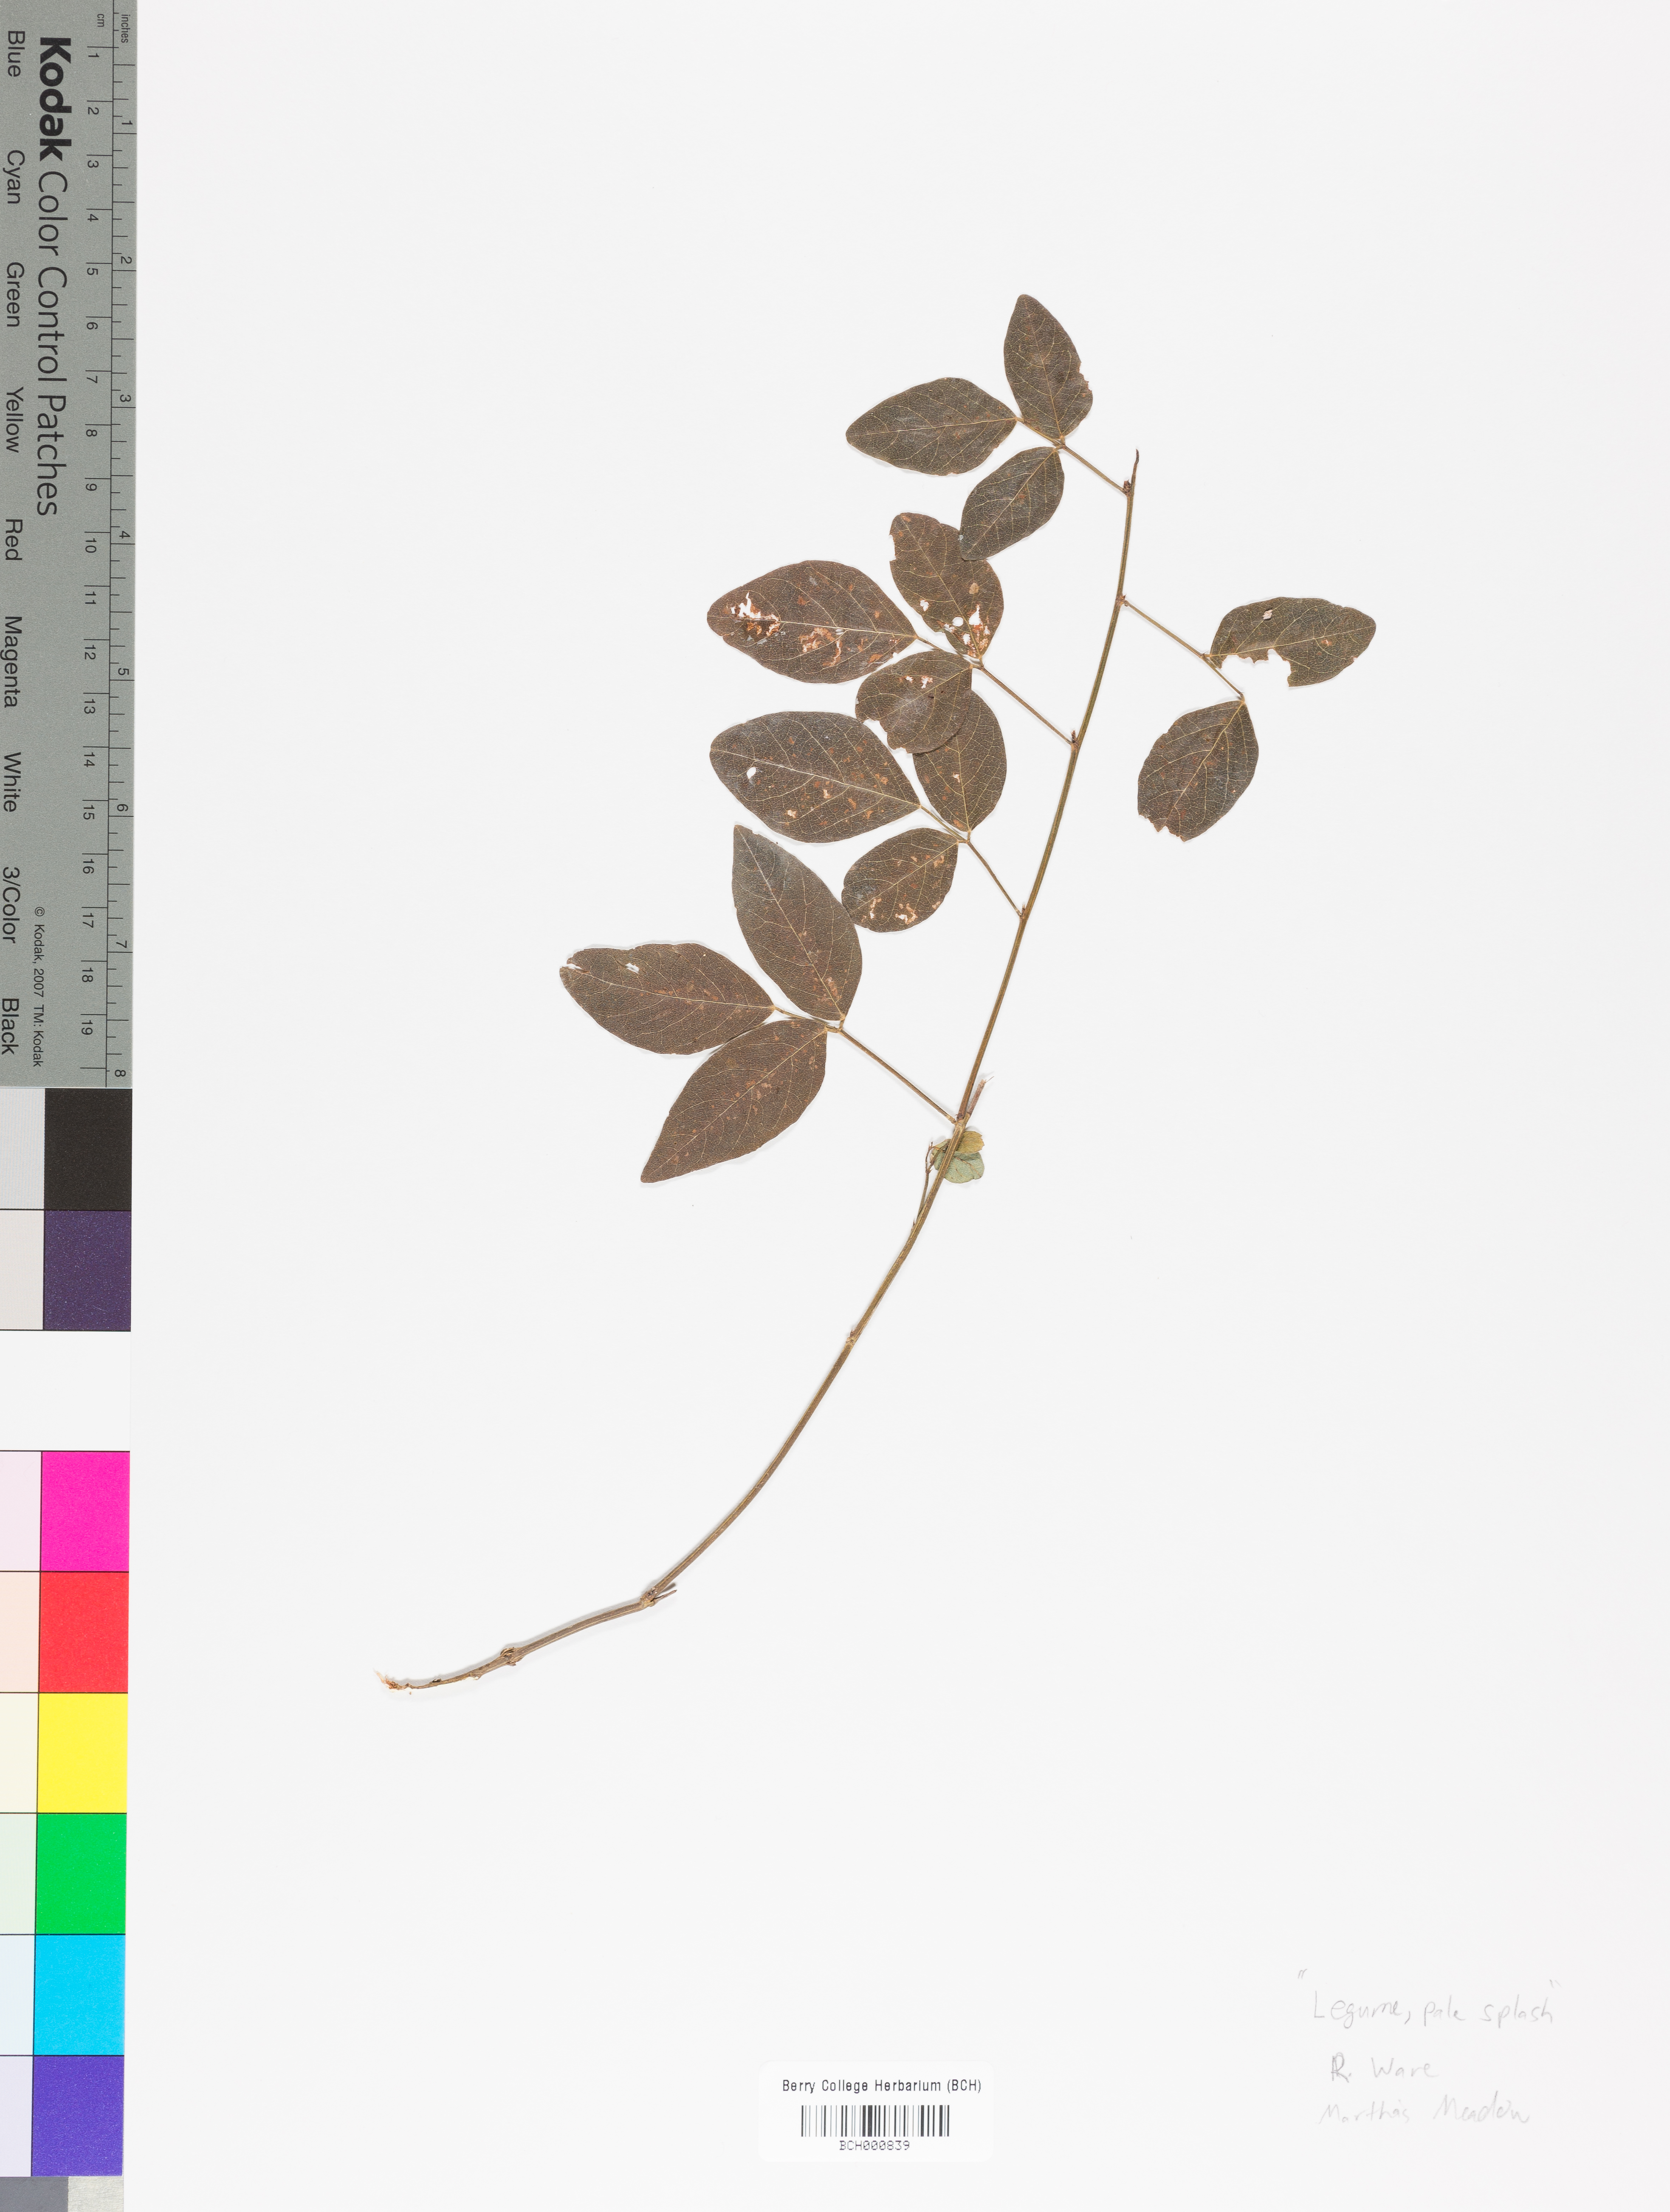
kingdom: Plantae
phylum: Tracheophyta
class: Magnoliopsida
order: Lamiales
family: Acanthaceae
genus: Adhatoda
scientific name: Adhatoda
